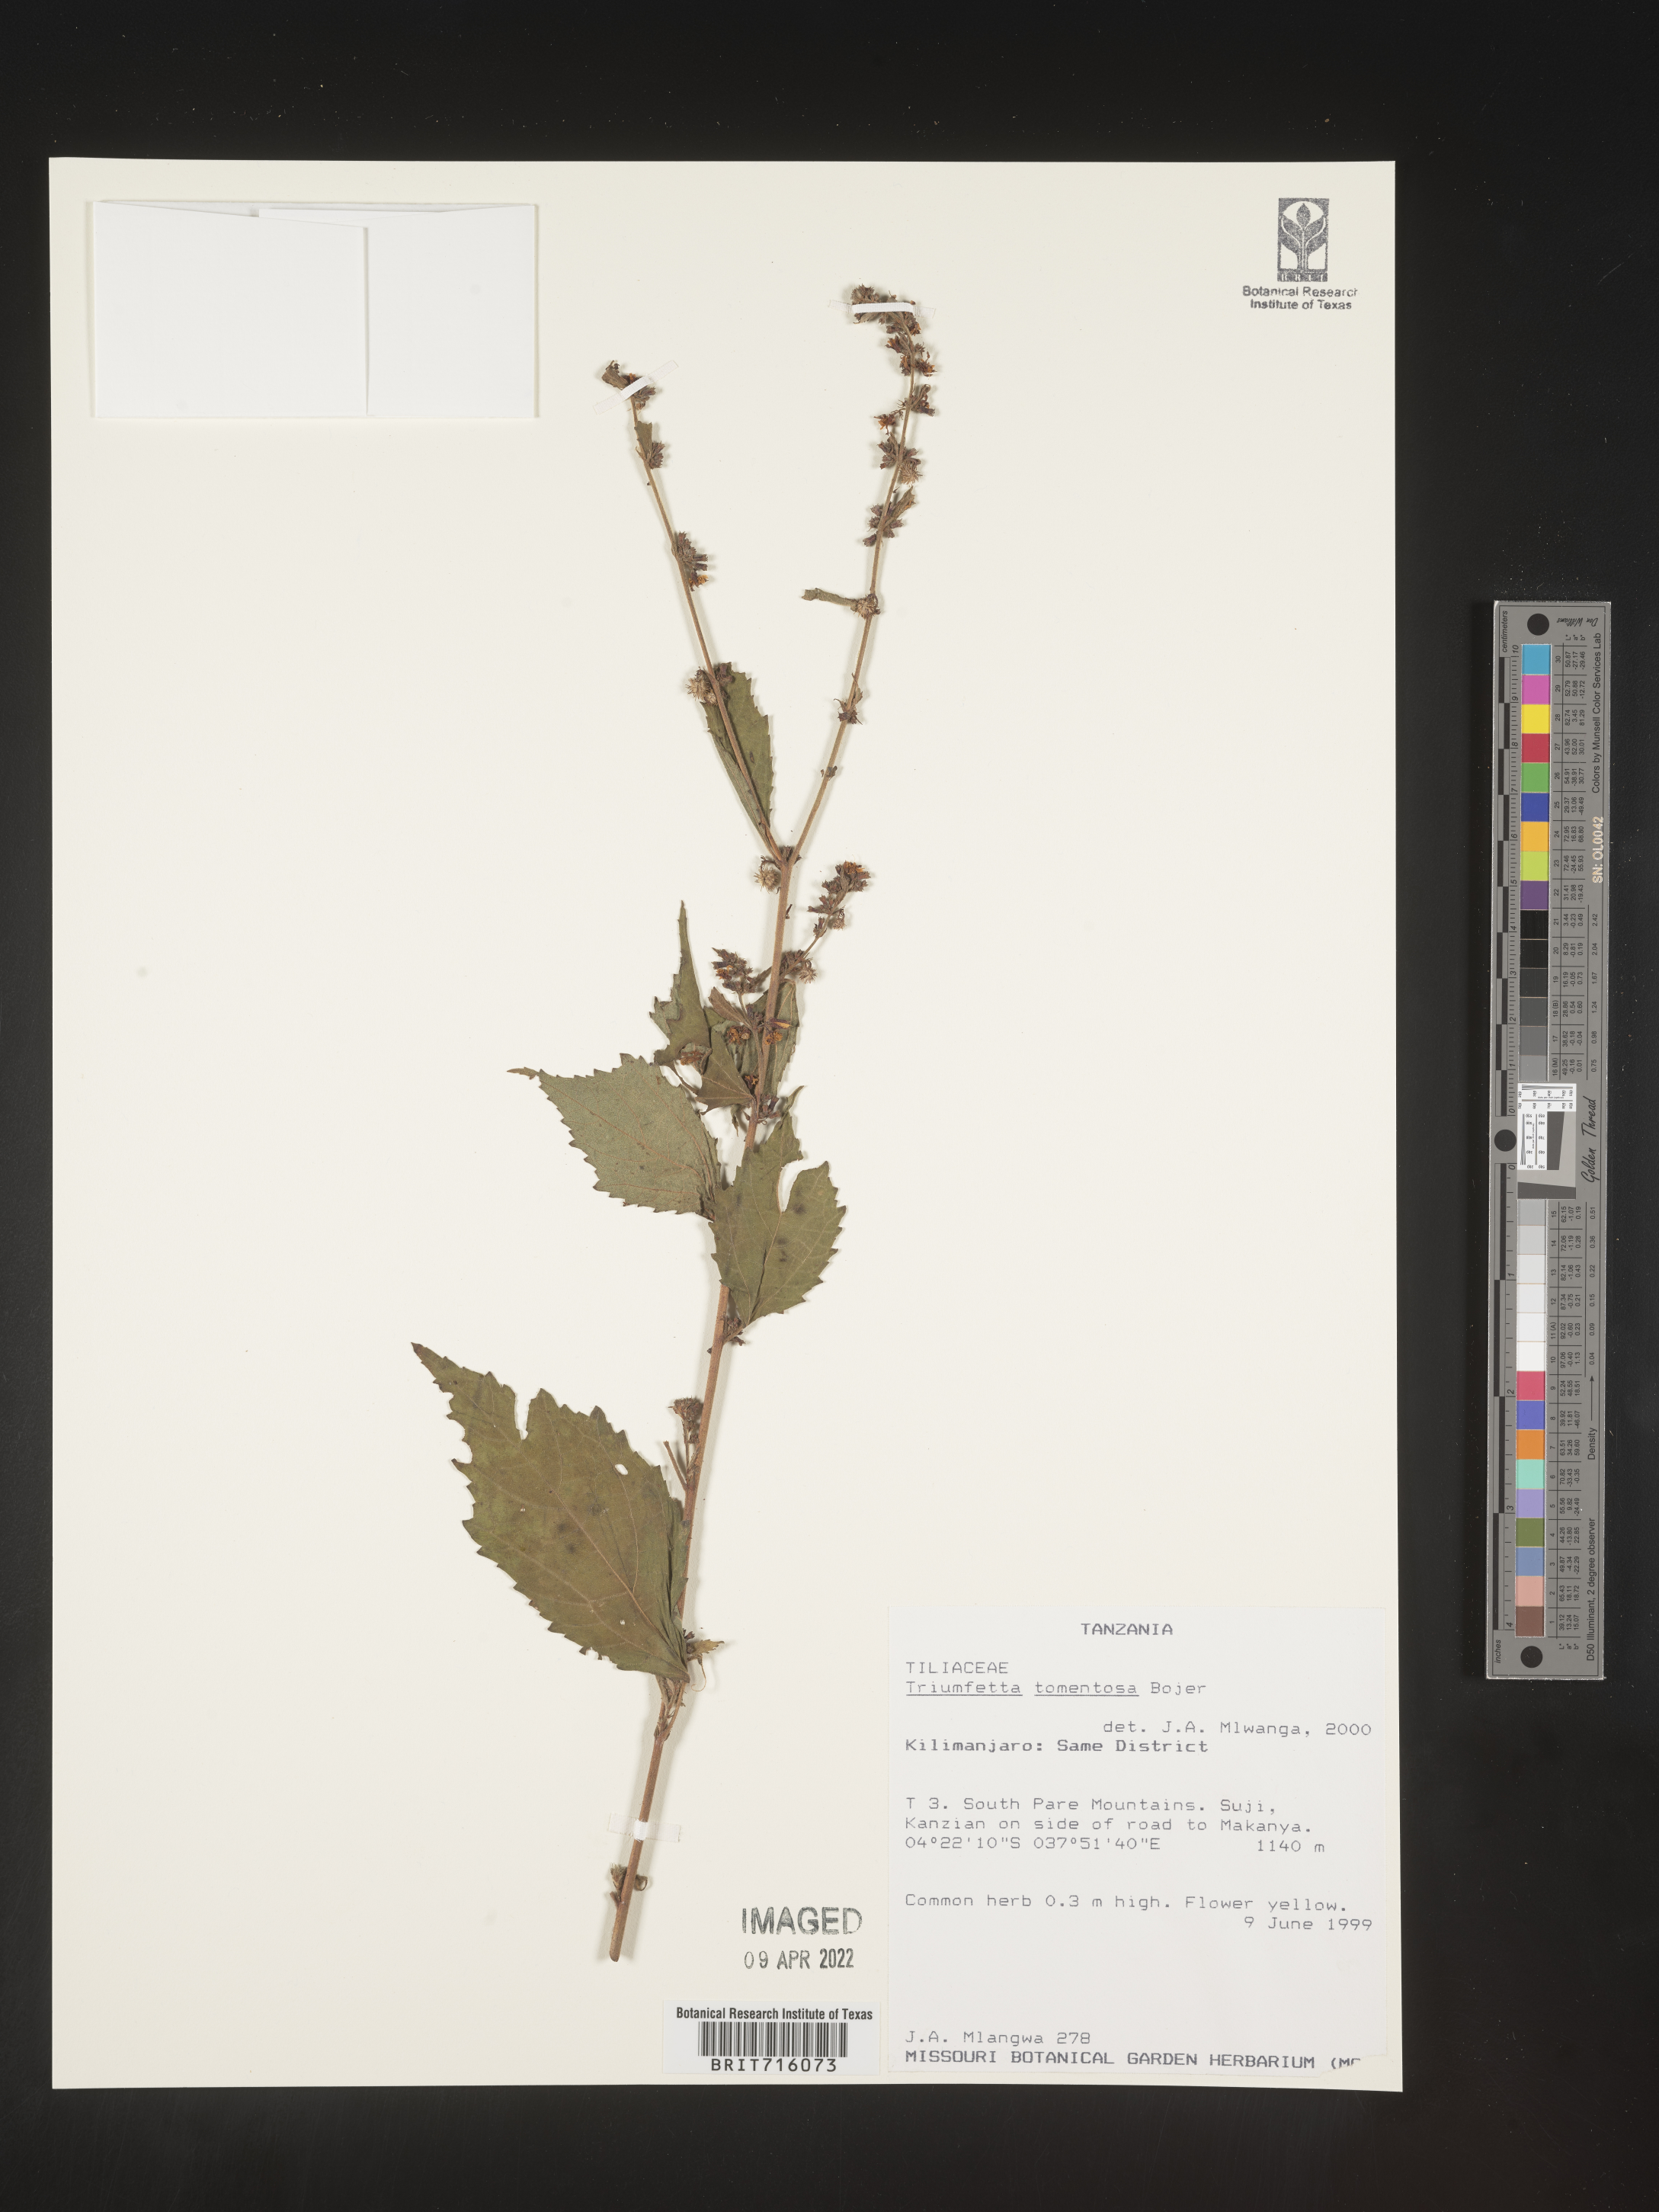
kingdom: Plantae
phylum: Tracheophyta
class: Magnoliopsida
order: Malvales
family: Malvaceae
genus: Triumfetta
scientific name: Triumfetta
